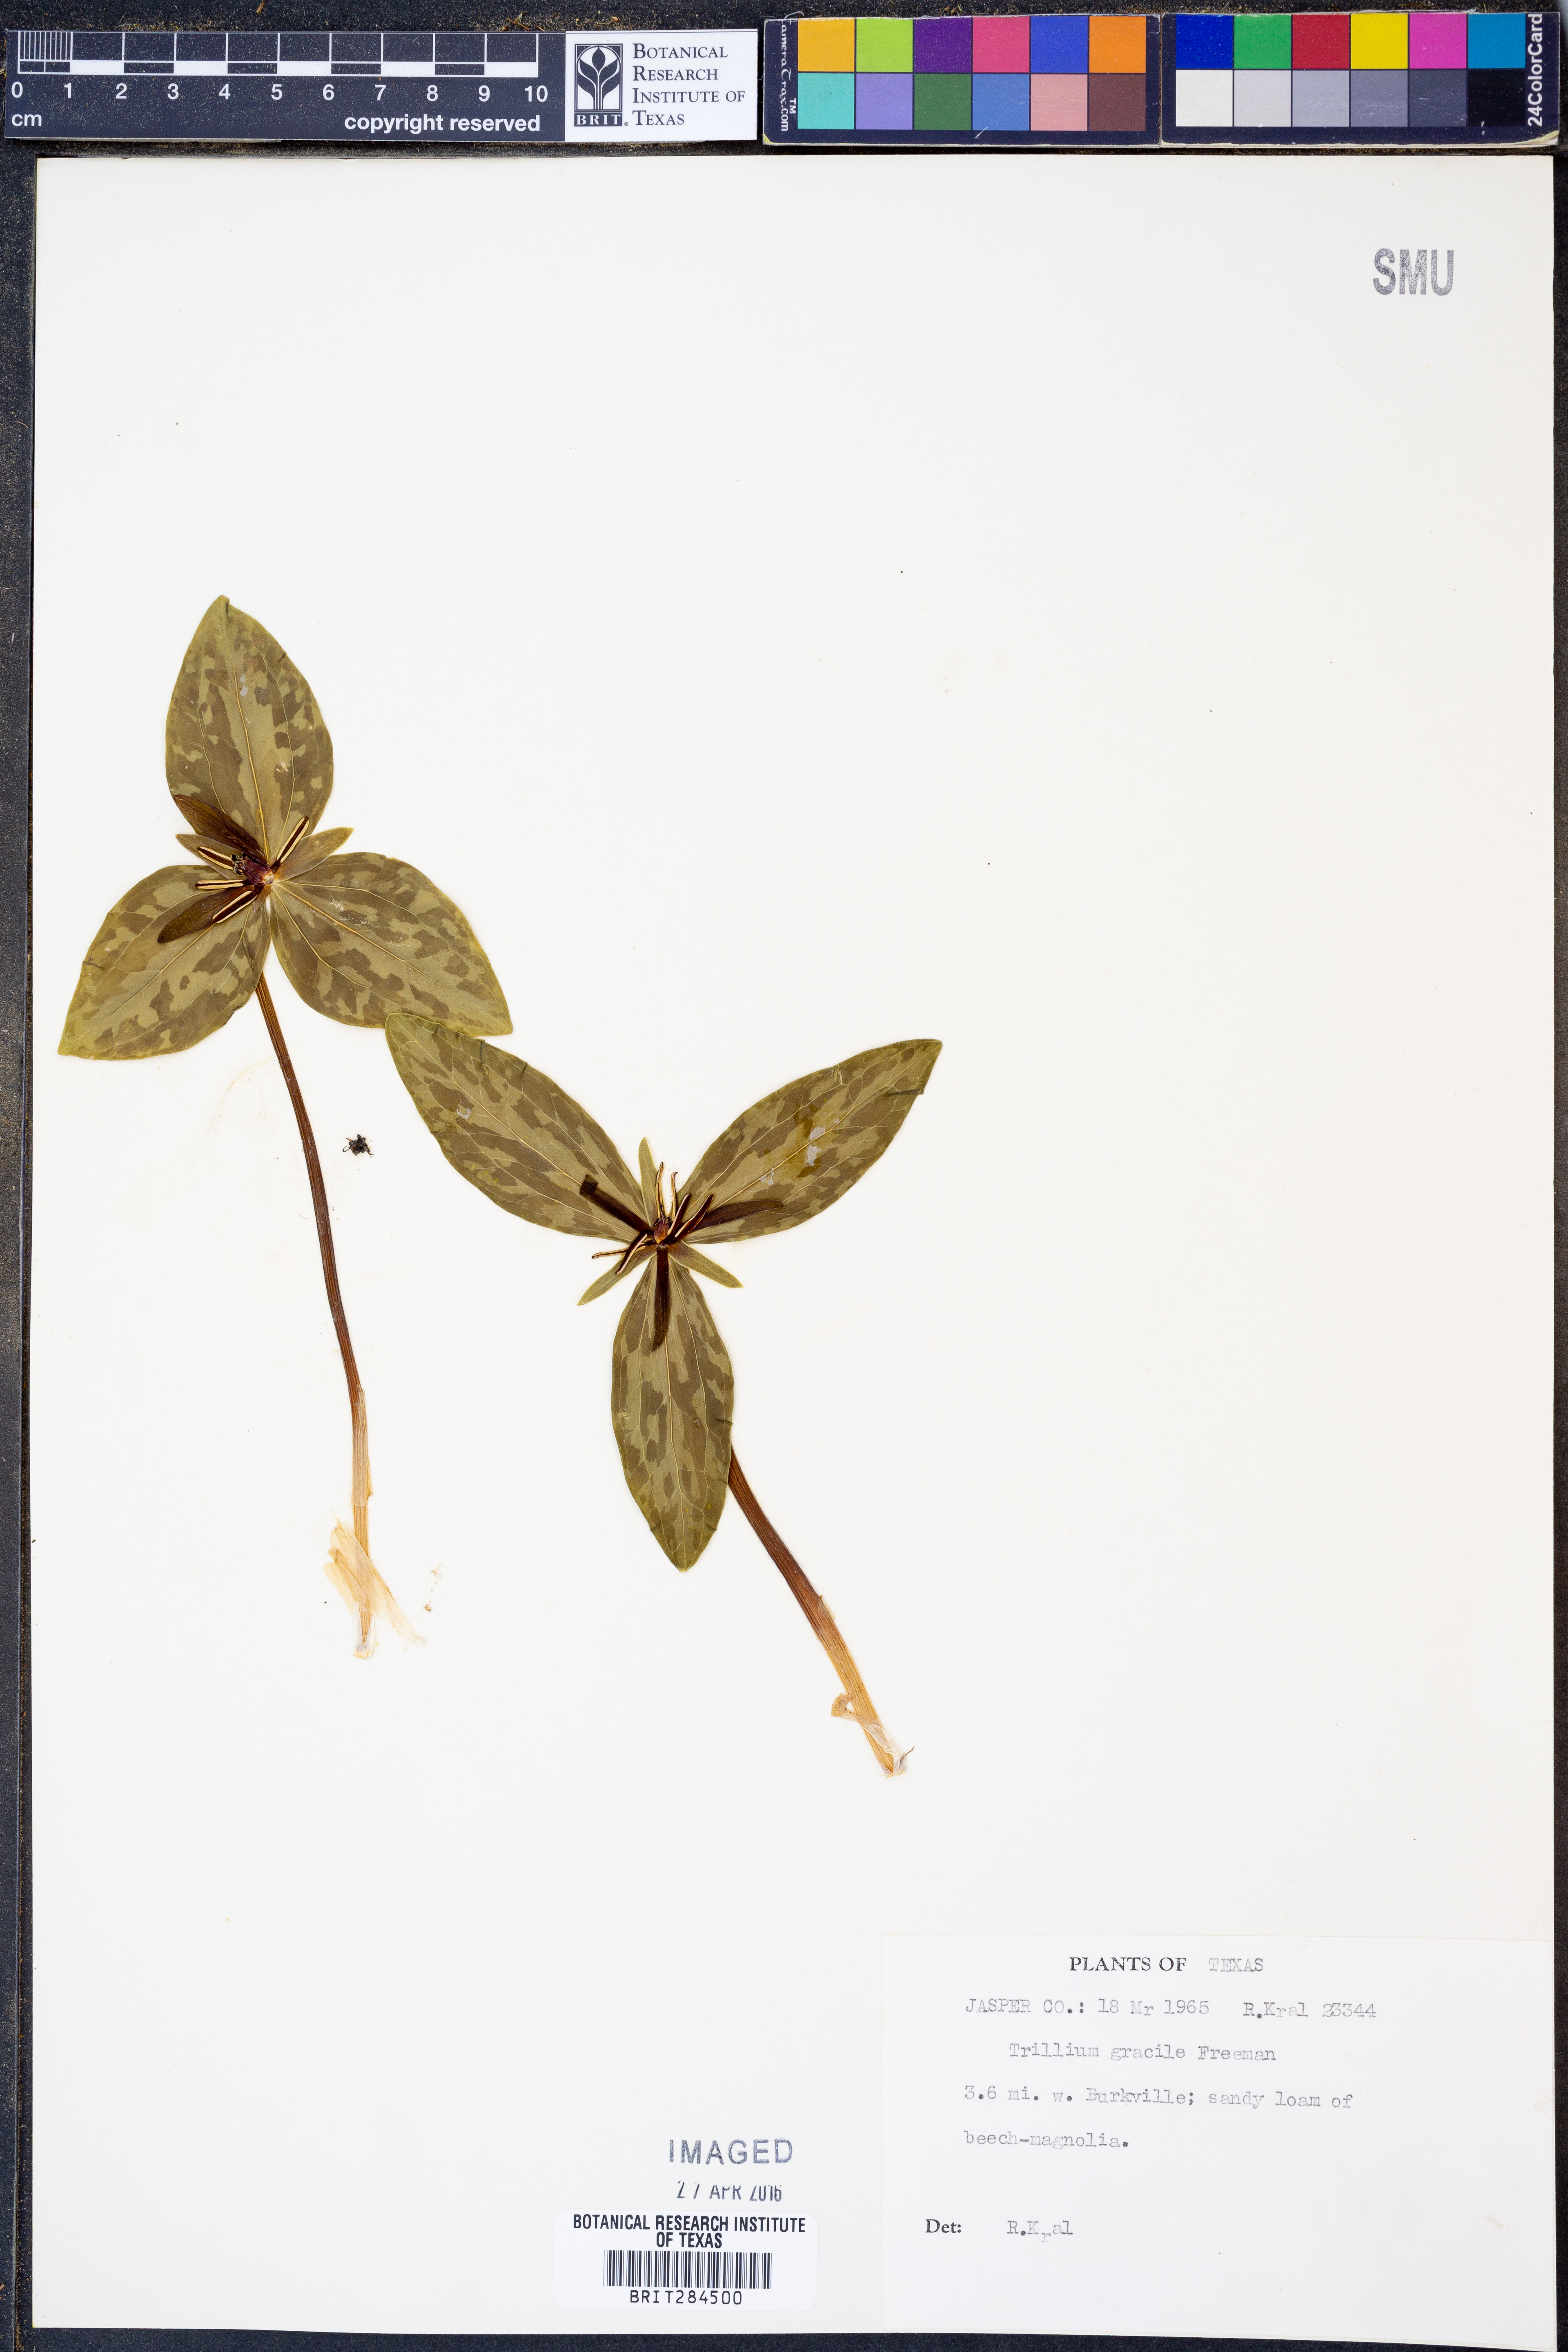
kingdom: Plantae
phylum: Tracheophyta
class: Liliopsida
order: Liliales
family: Melanthiaceae
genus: Trillium
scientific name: Trillium gracile
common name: Graceful trillium
